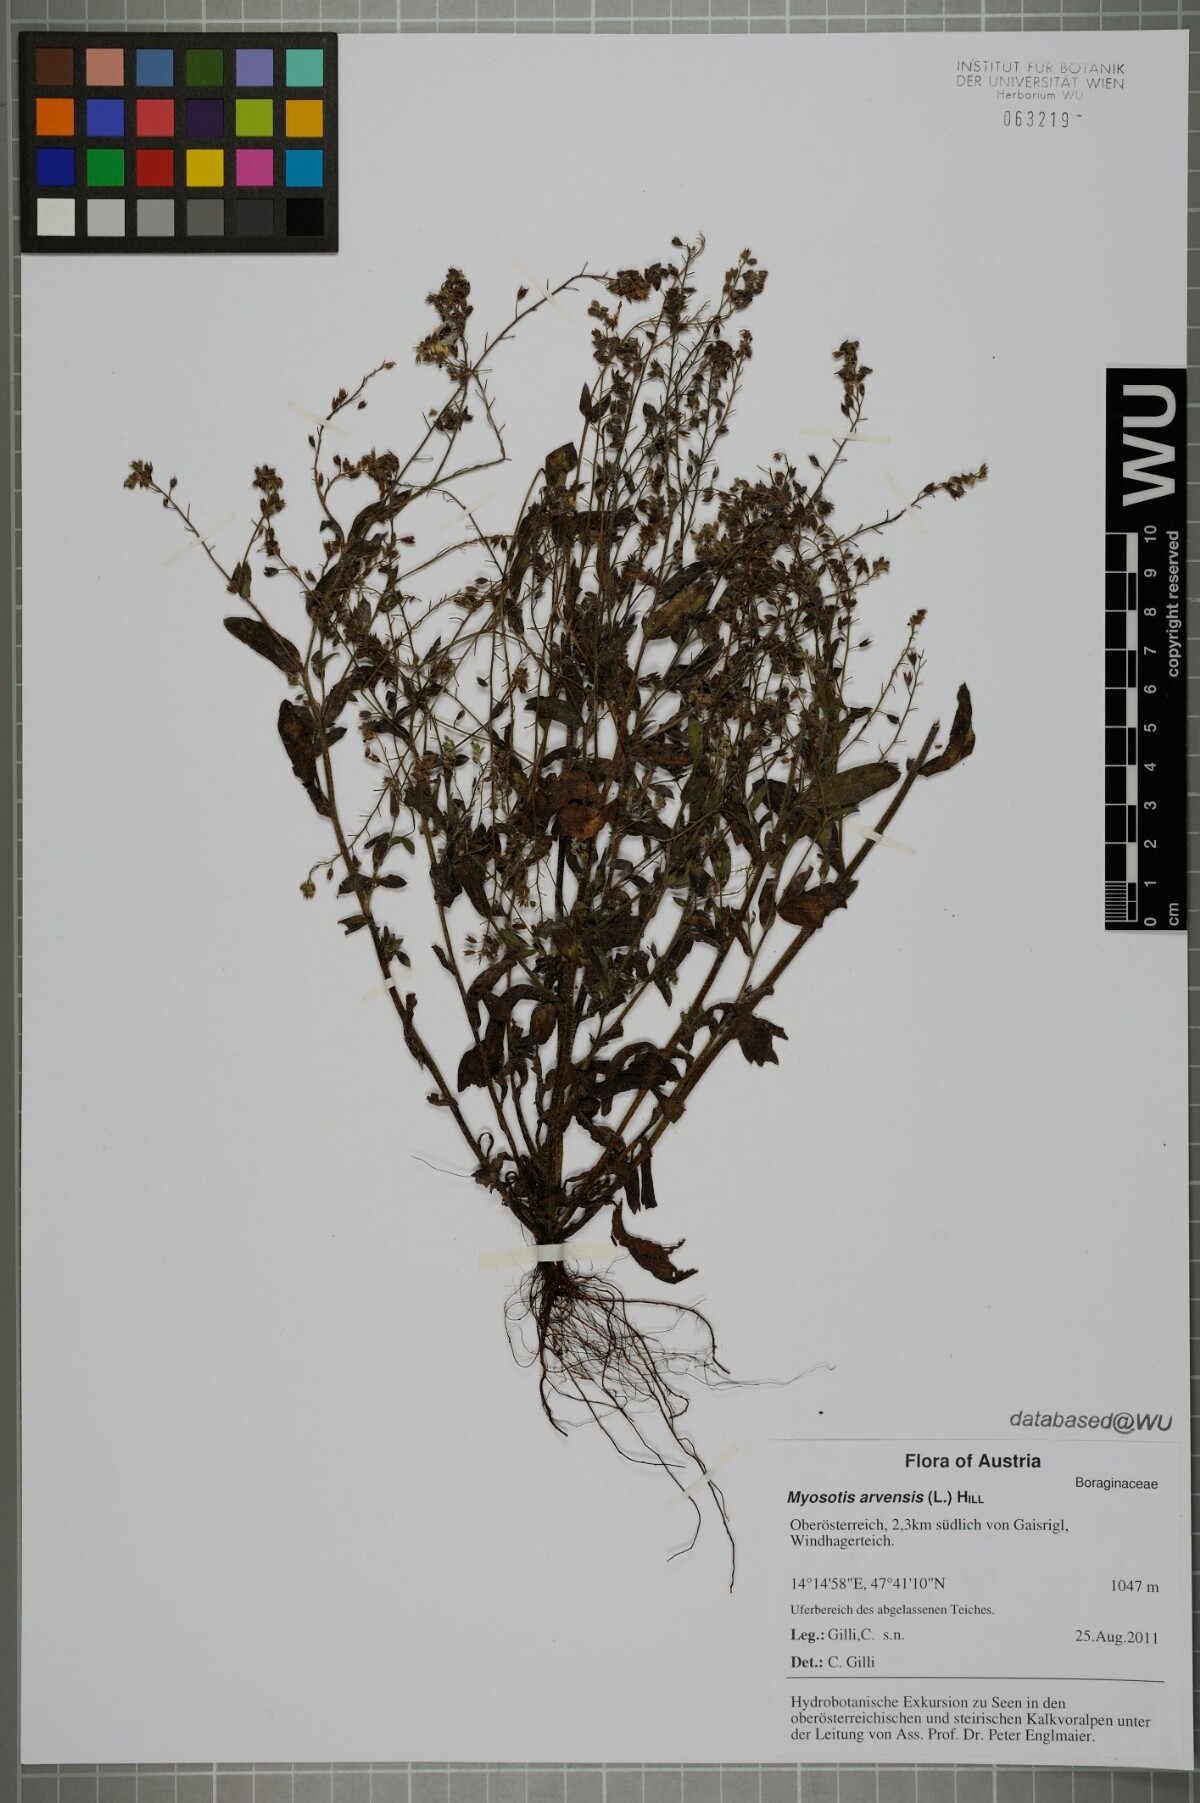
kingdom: Plantae
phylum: Tracheophyta
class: Magnoliopsida
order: Boraginales
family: Boraginaceae
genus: Myosotis
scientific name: Myosotis arvensis
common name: Field forget-me-not
